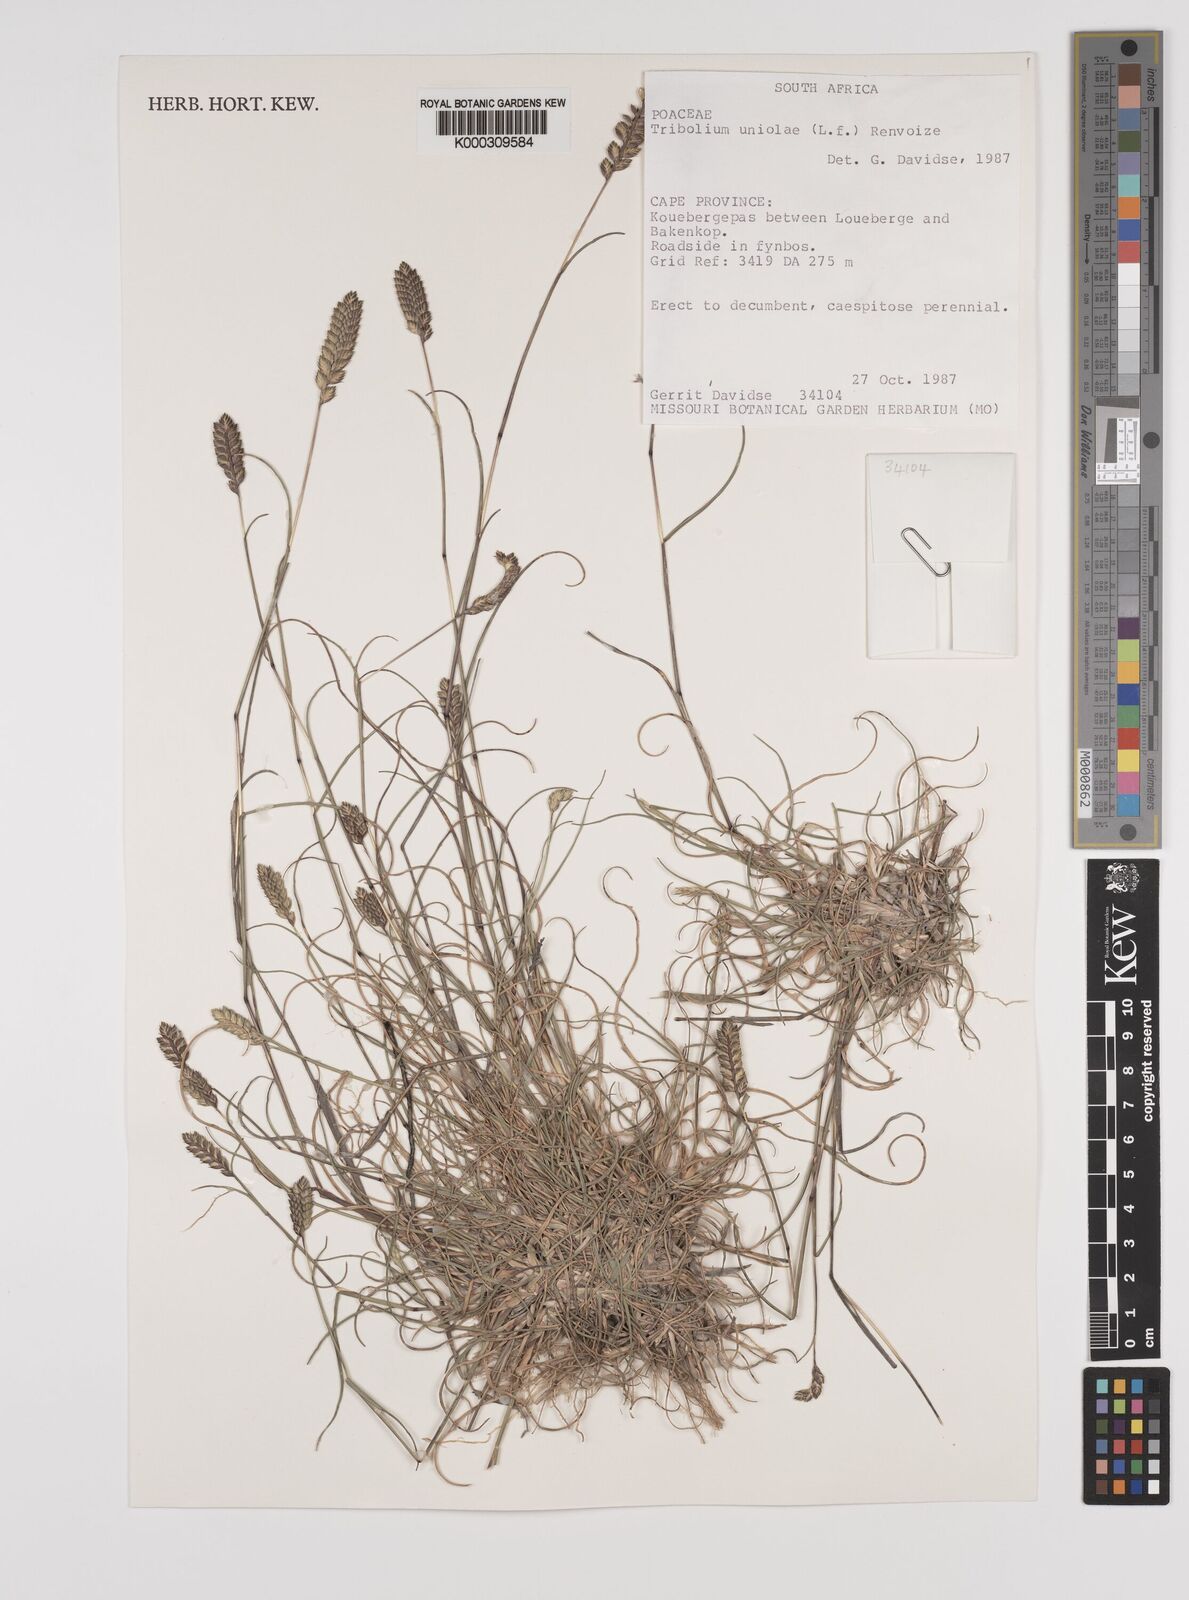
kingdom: Plantae
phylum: Tracheophyta
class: Liliopsida
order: Poales
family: Poaceae
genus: Tribolium
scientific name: Tribolium uniolae
